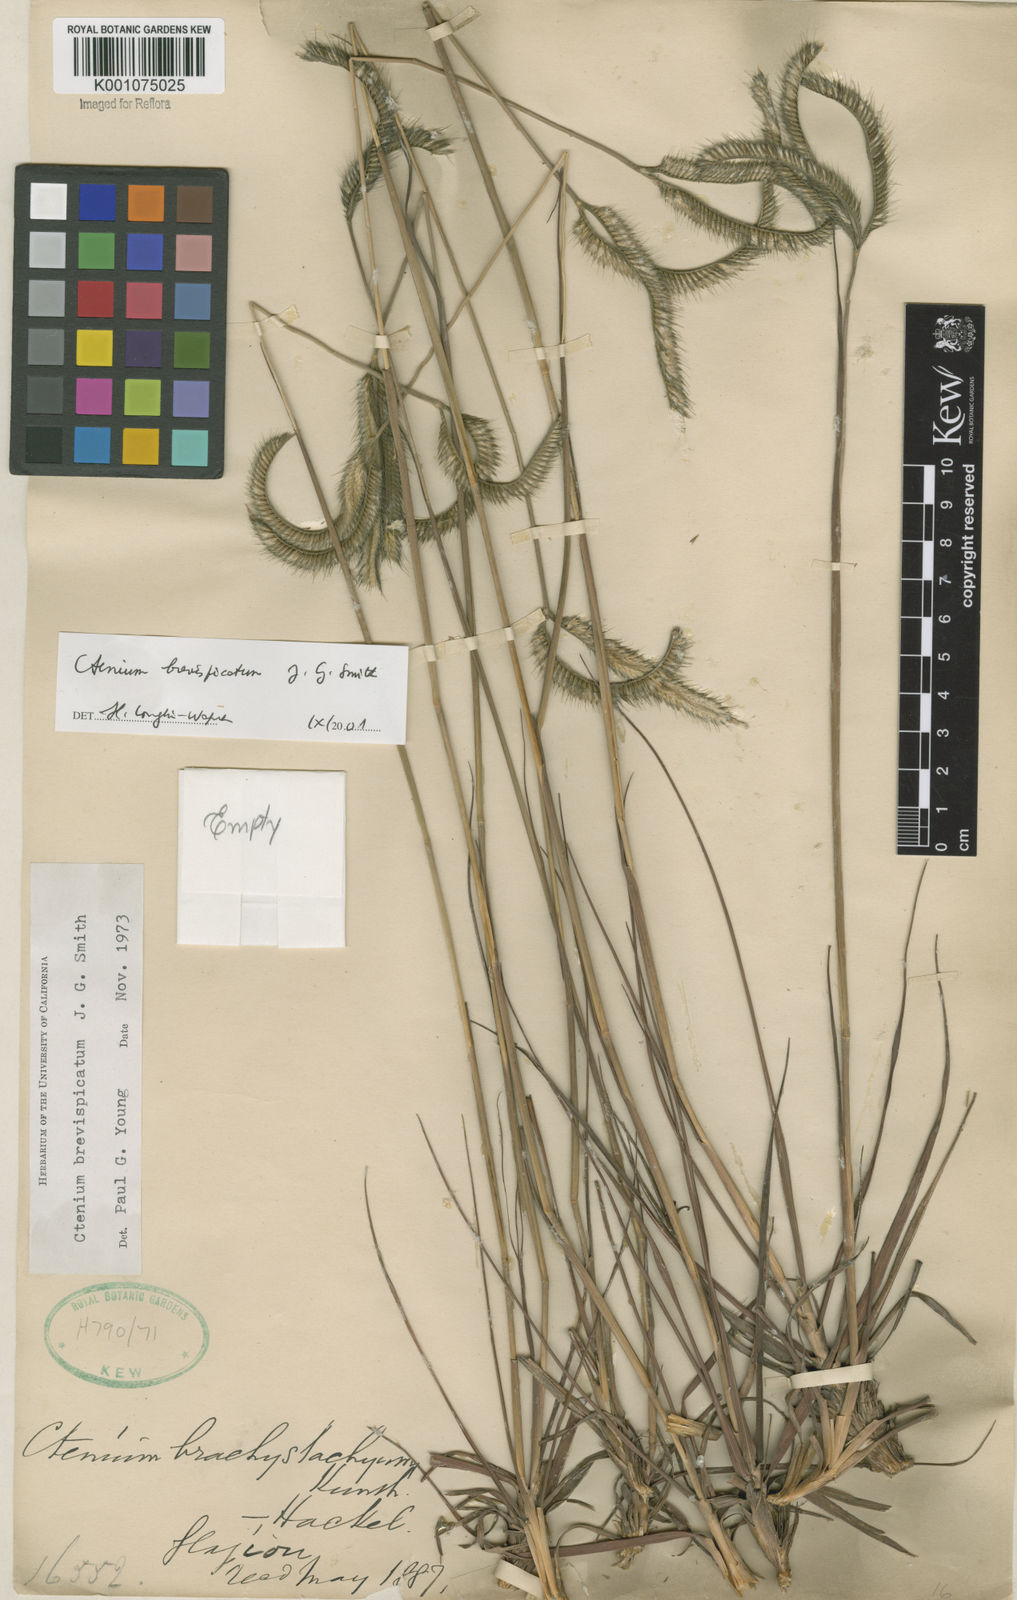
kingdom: Plantae
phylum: Tracheophyta
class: Liliopsida
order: Poales
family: Poaceae
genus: Ctenium
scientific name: Ctenium brevispicatum
